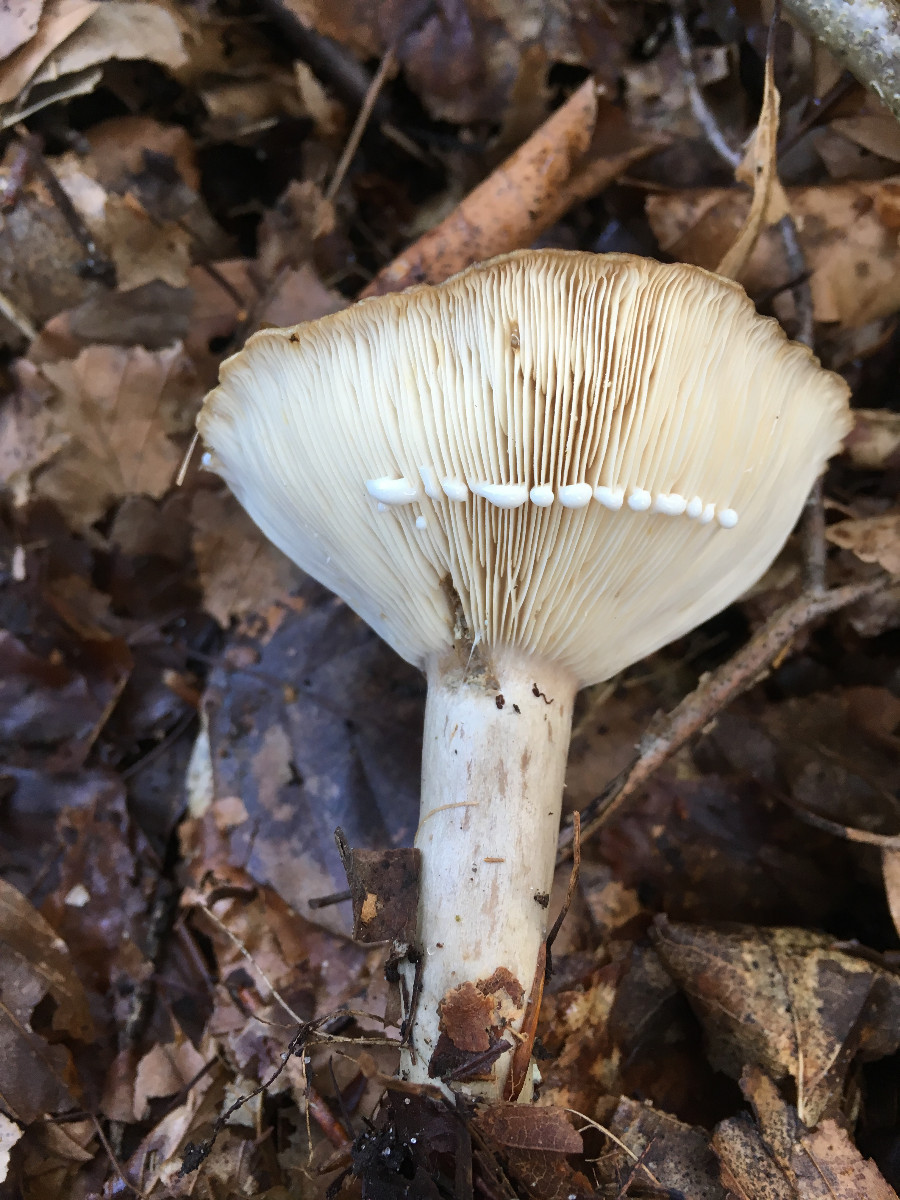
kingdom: Fungi
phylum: Basidiomycota
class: Agaricomycetes
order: Russulales
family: Russulaceae
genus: Lactarius
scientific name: Lactarius blennius
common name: dråbeplettet mælkehat
